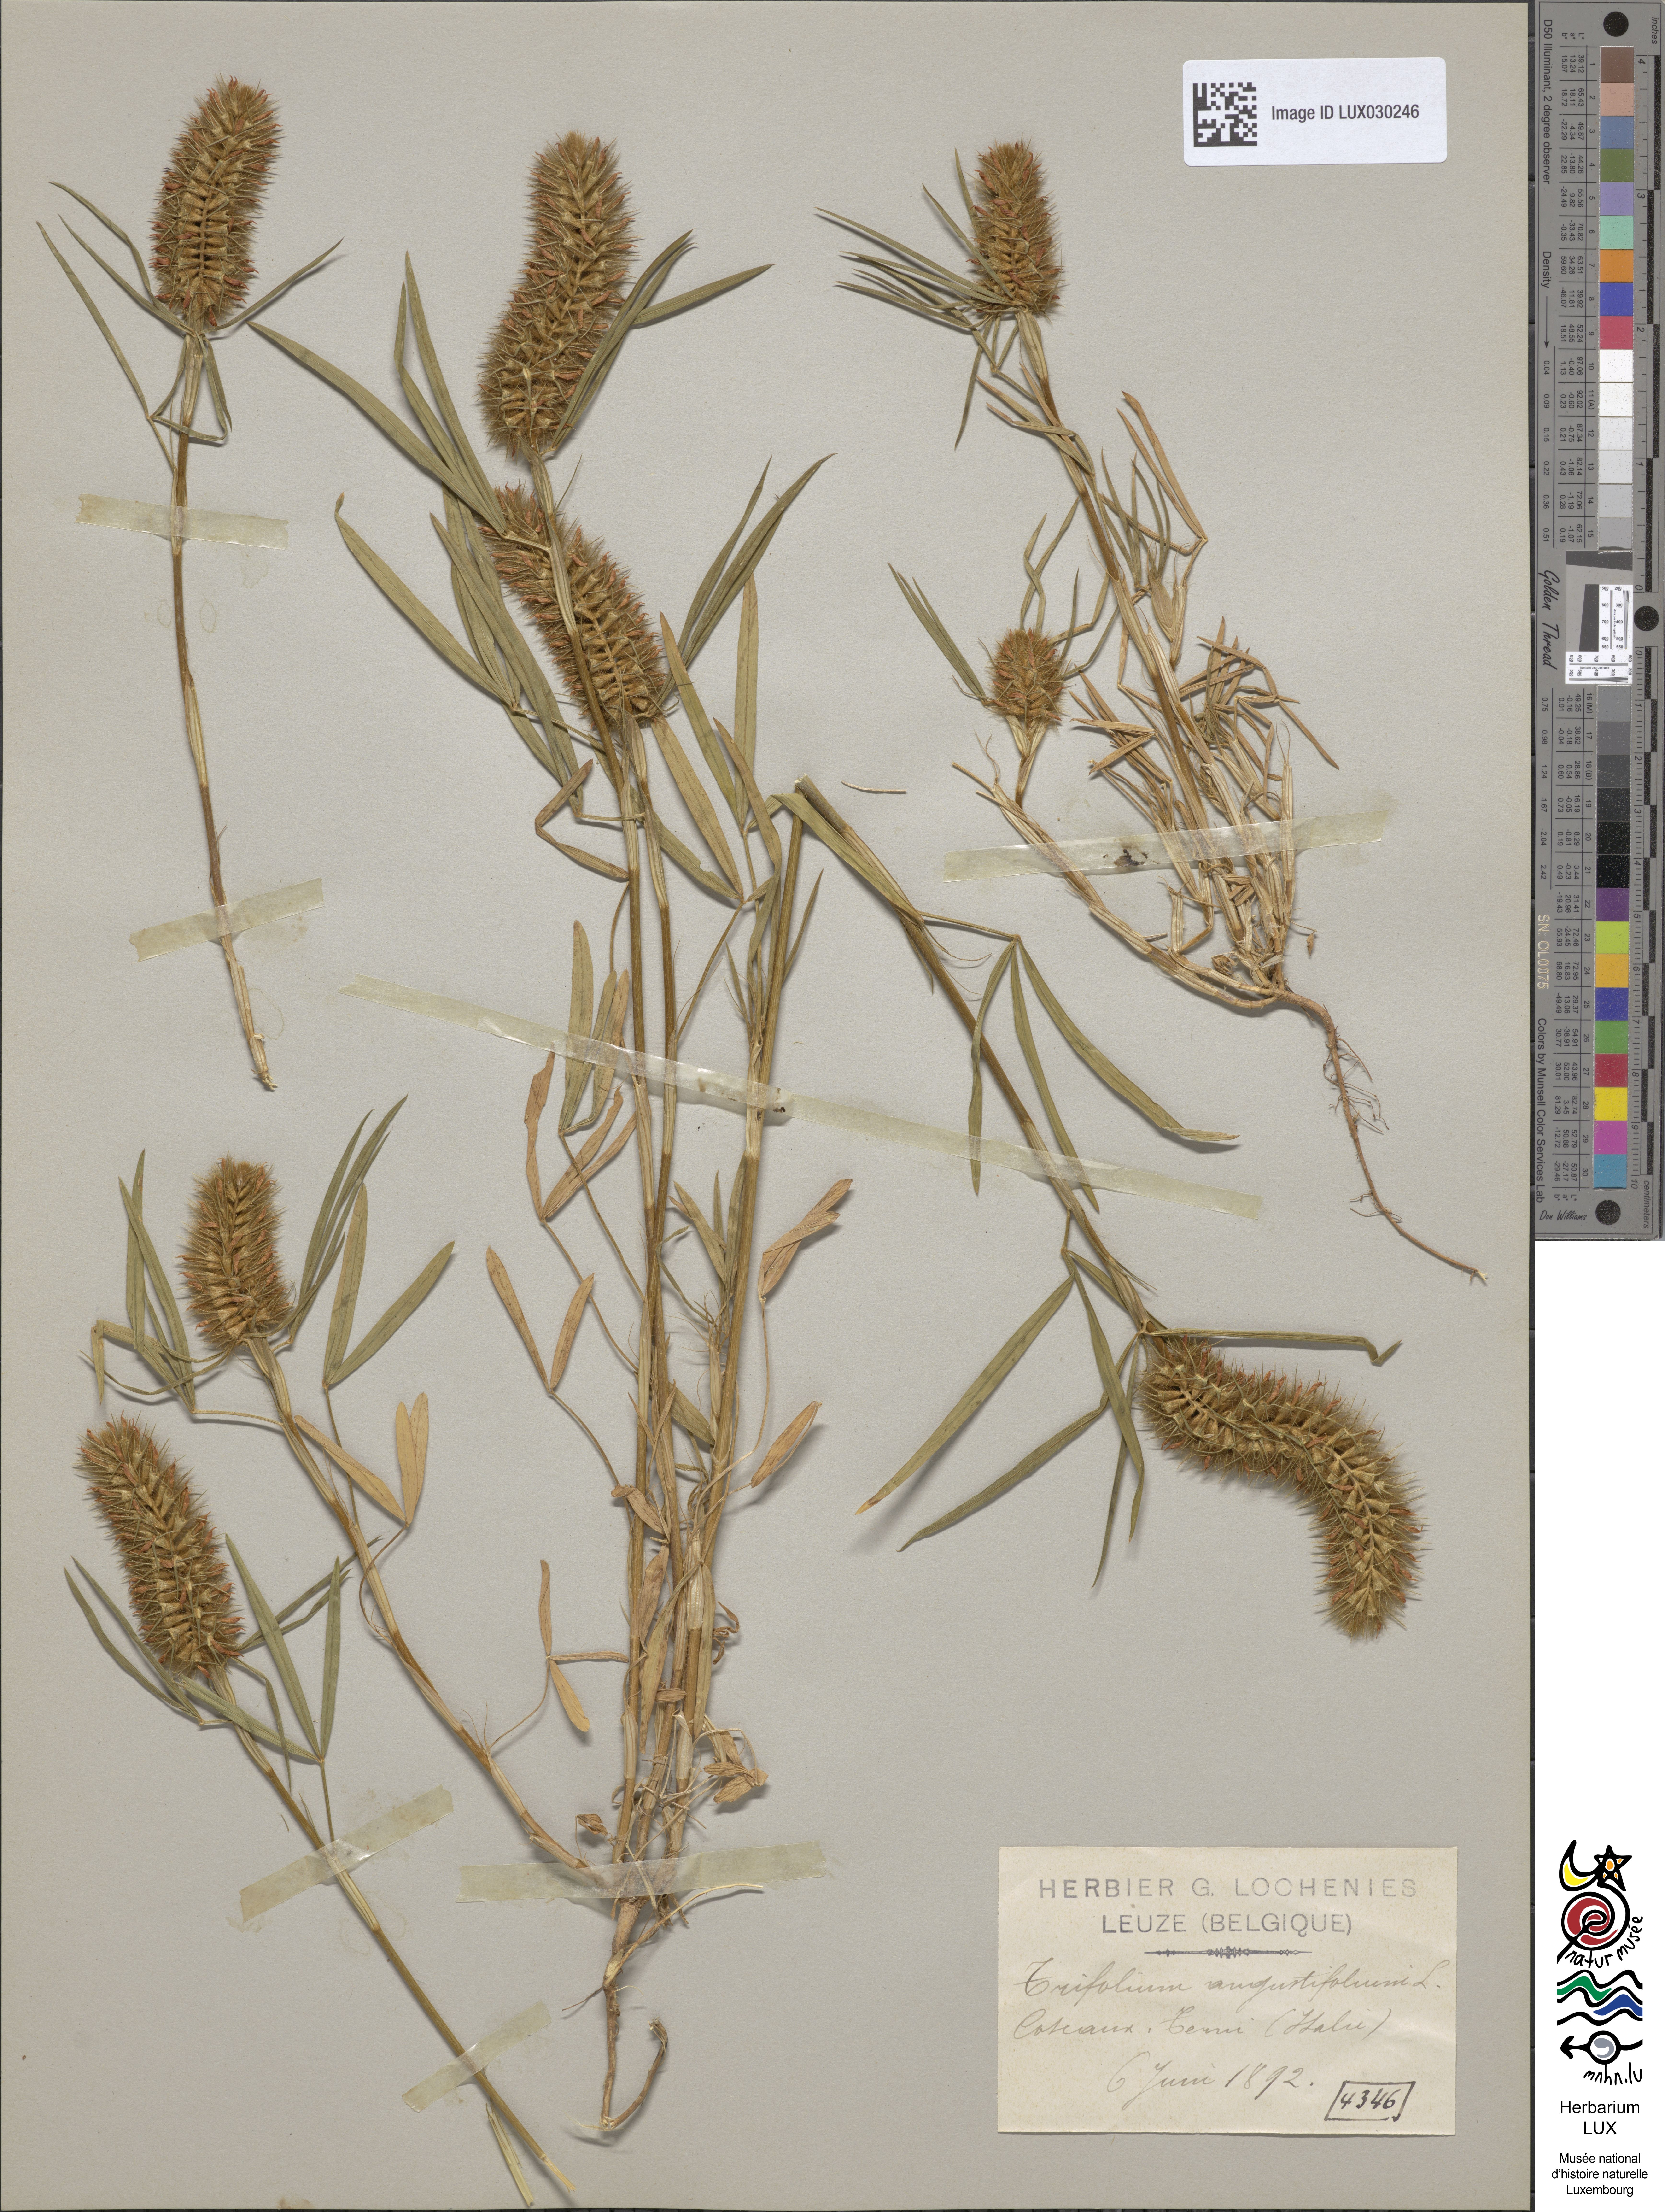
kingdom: Plantae
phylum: Tracheophyta
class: Magnoliopsida
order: Fabales
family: Fabaceae
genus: Trifolium
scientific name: Trifolium angustifolium
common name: Narrow clover
